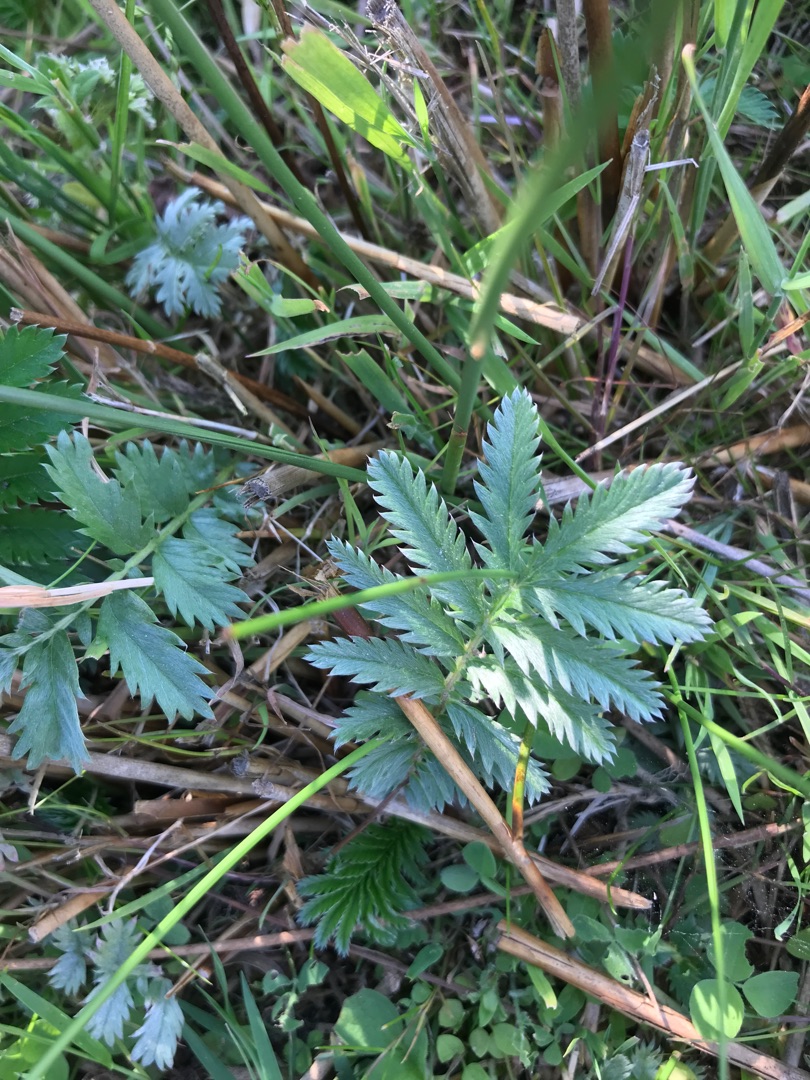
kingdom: Plantae
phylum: Tracheophyta
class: Magnoliopsida
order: Rosales
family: Rosaceae
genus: Argentina
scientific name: Argentina anserina
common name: Gåsepotentil
